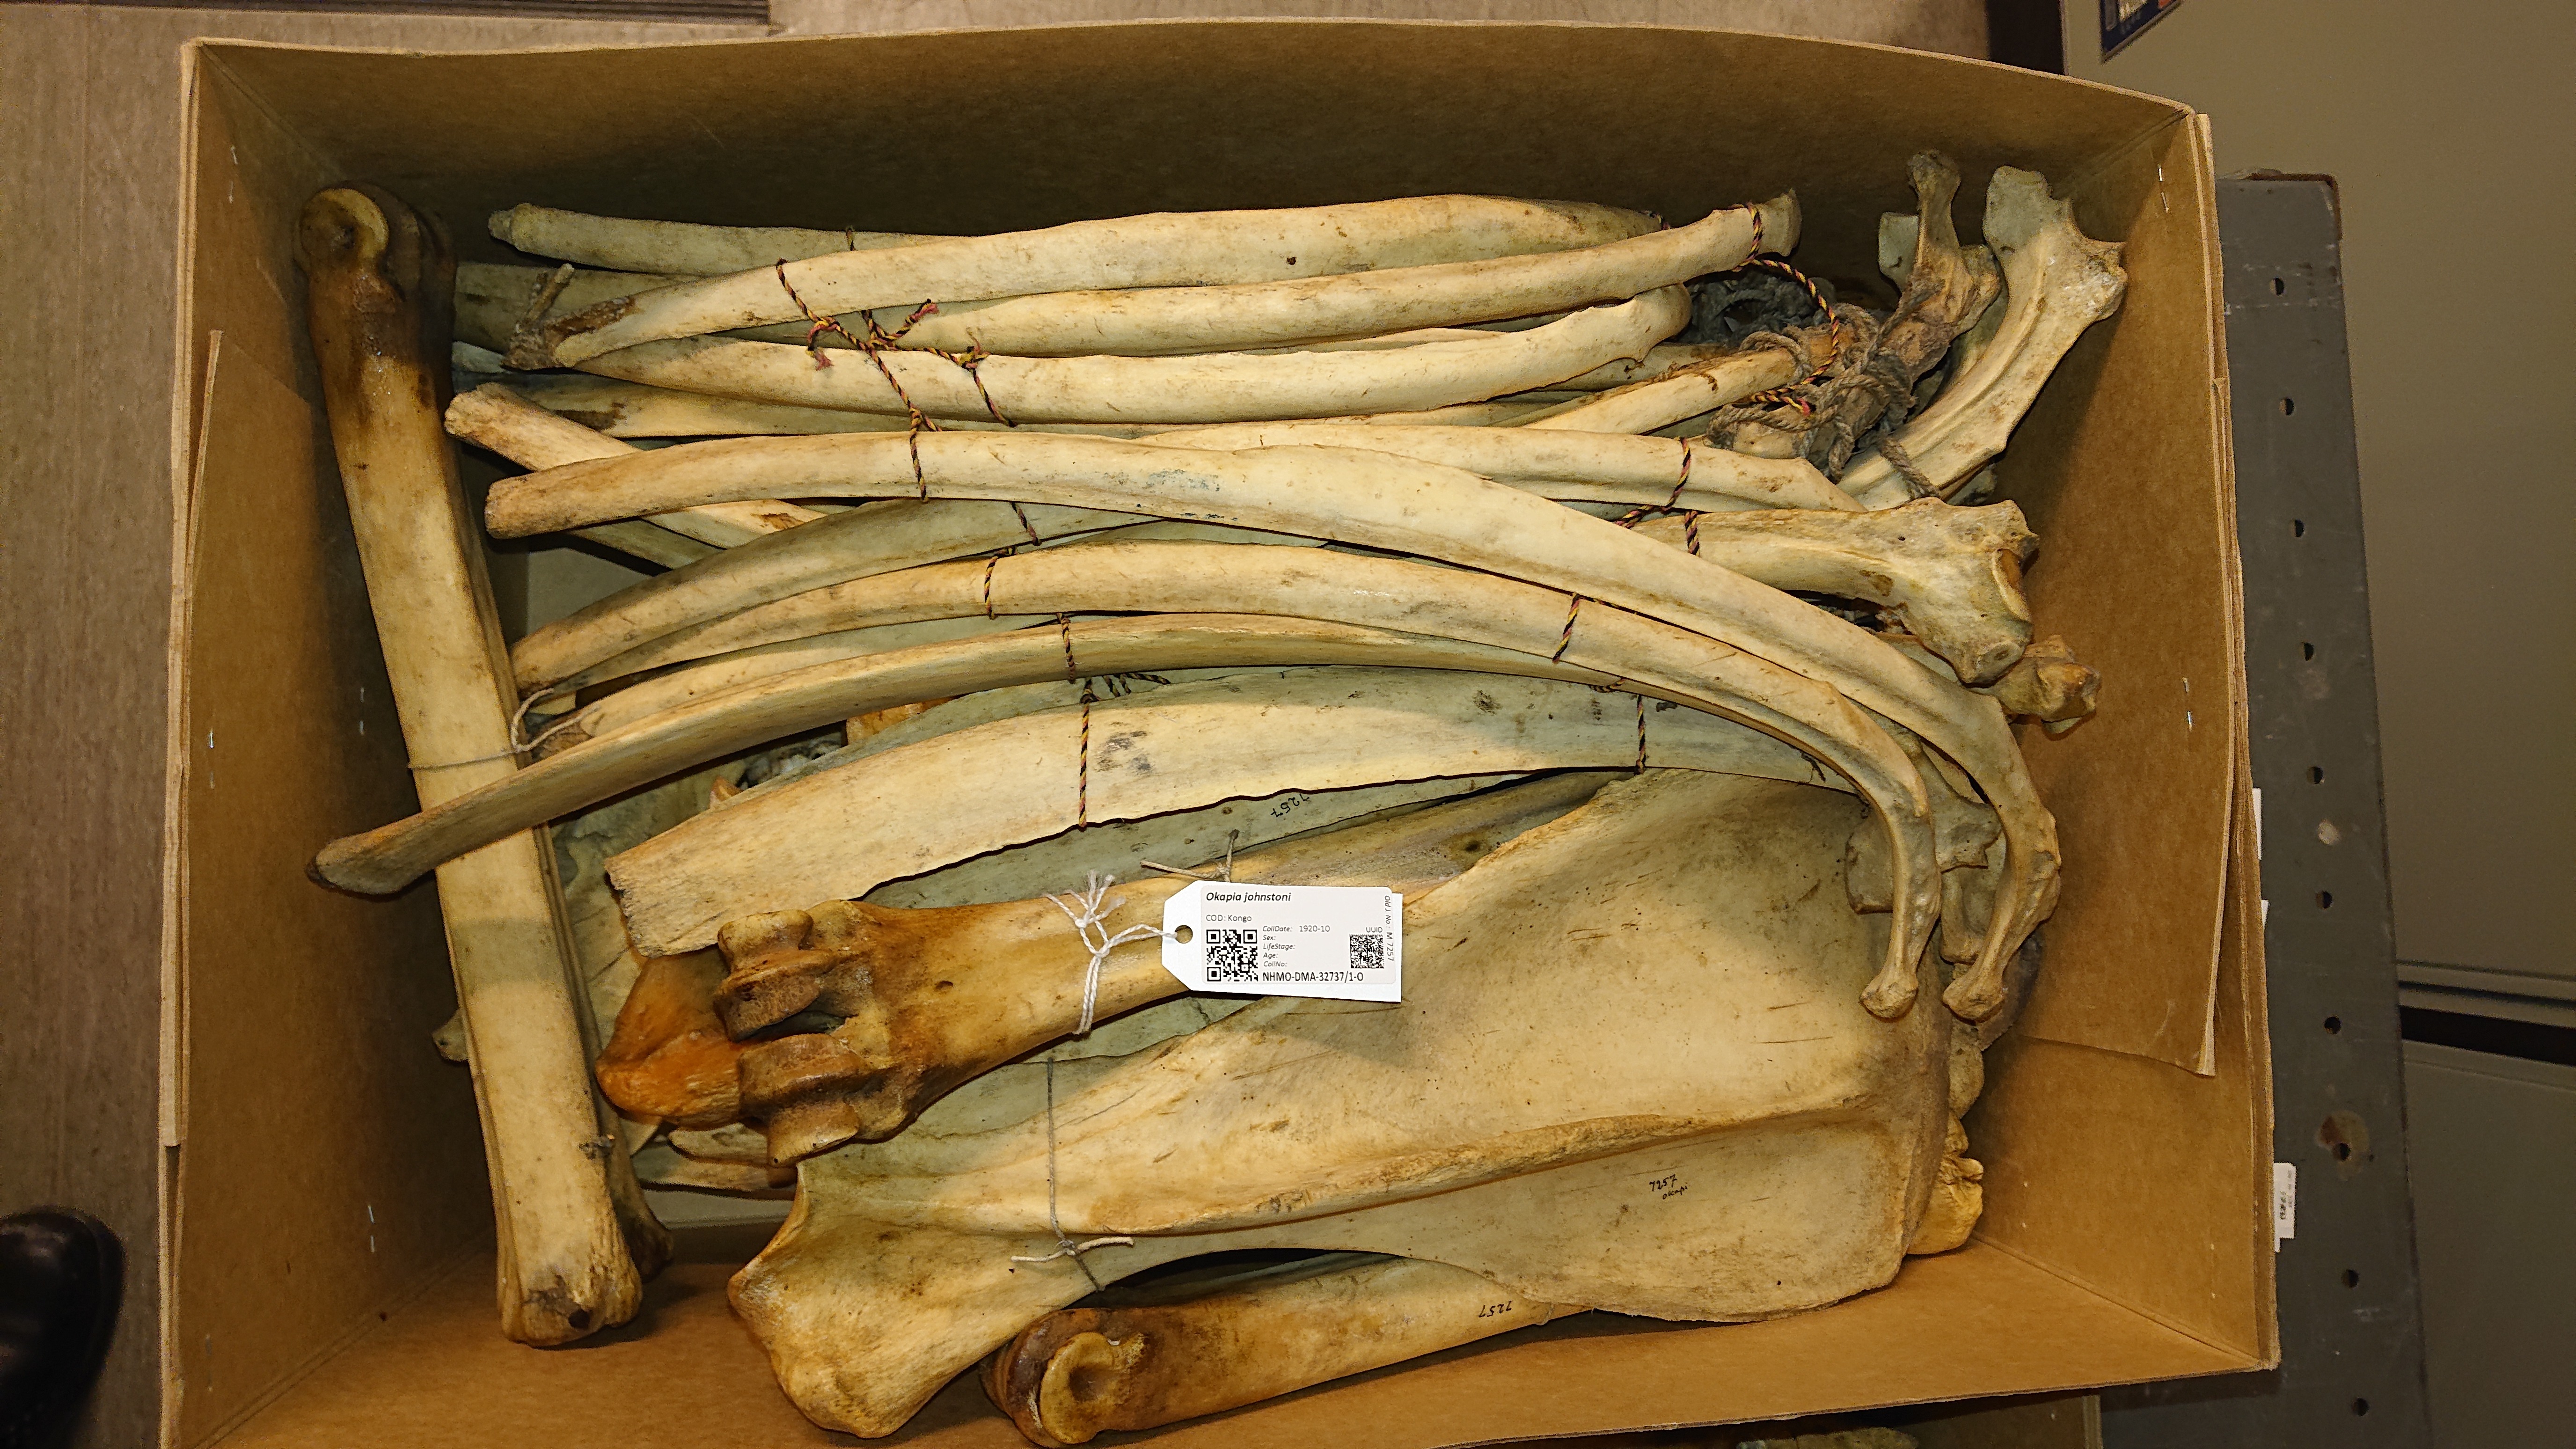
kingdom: Animalia
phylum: Chordata
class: Mammalia
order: Artiodactyla
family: Giraffidae
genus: Okapia
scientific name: Okapia johnstoni
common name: Okapi
